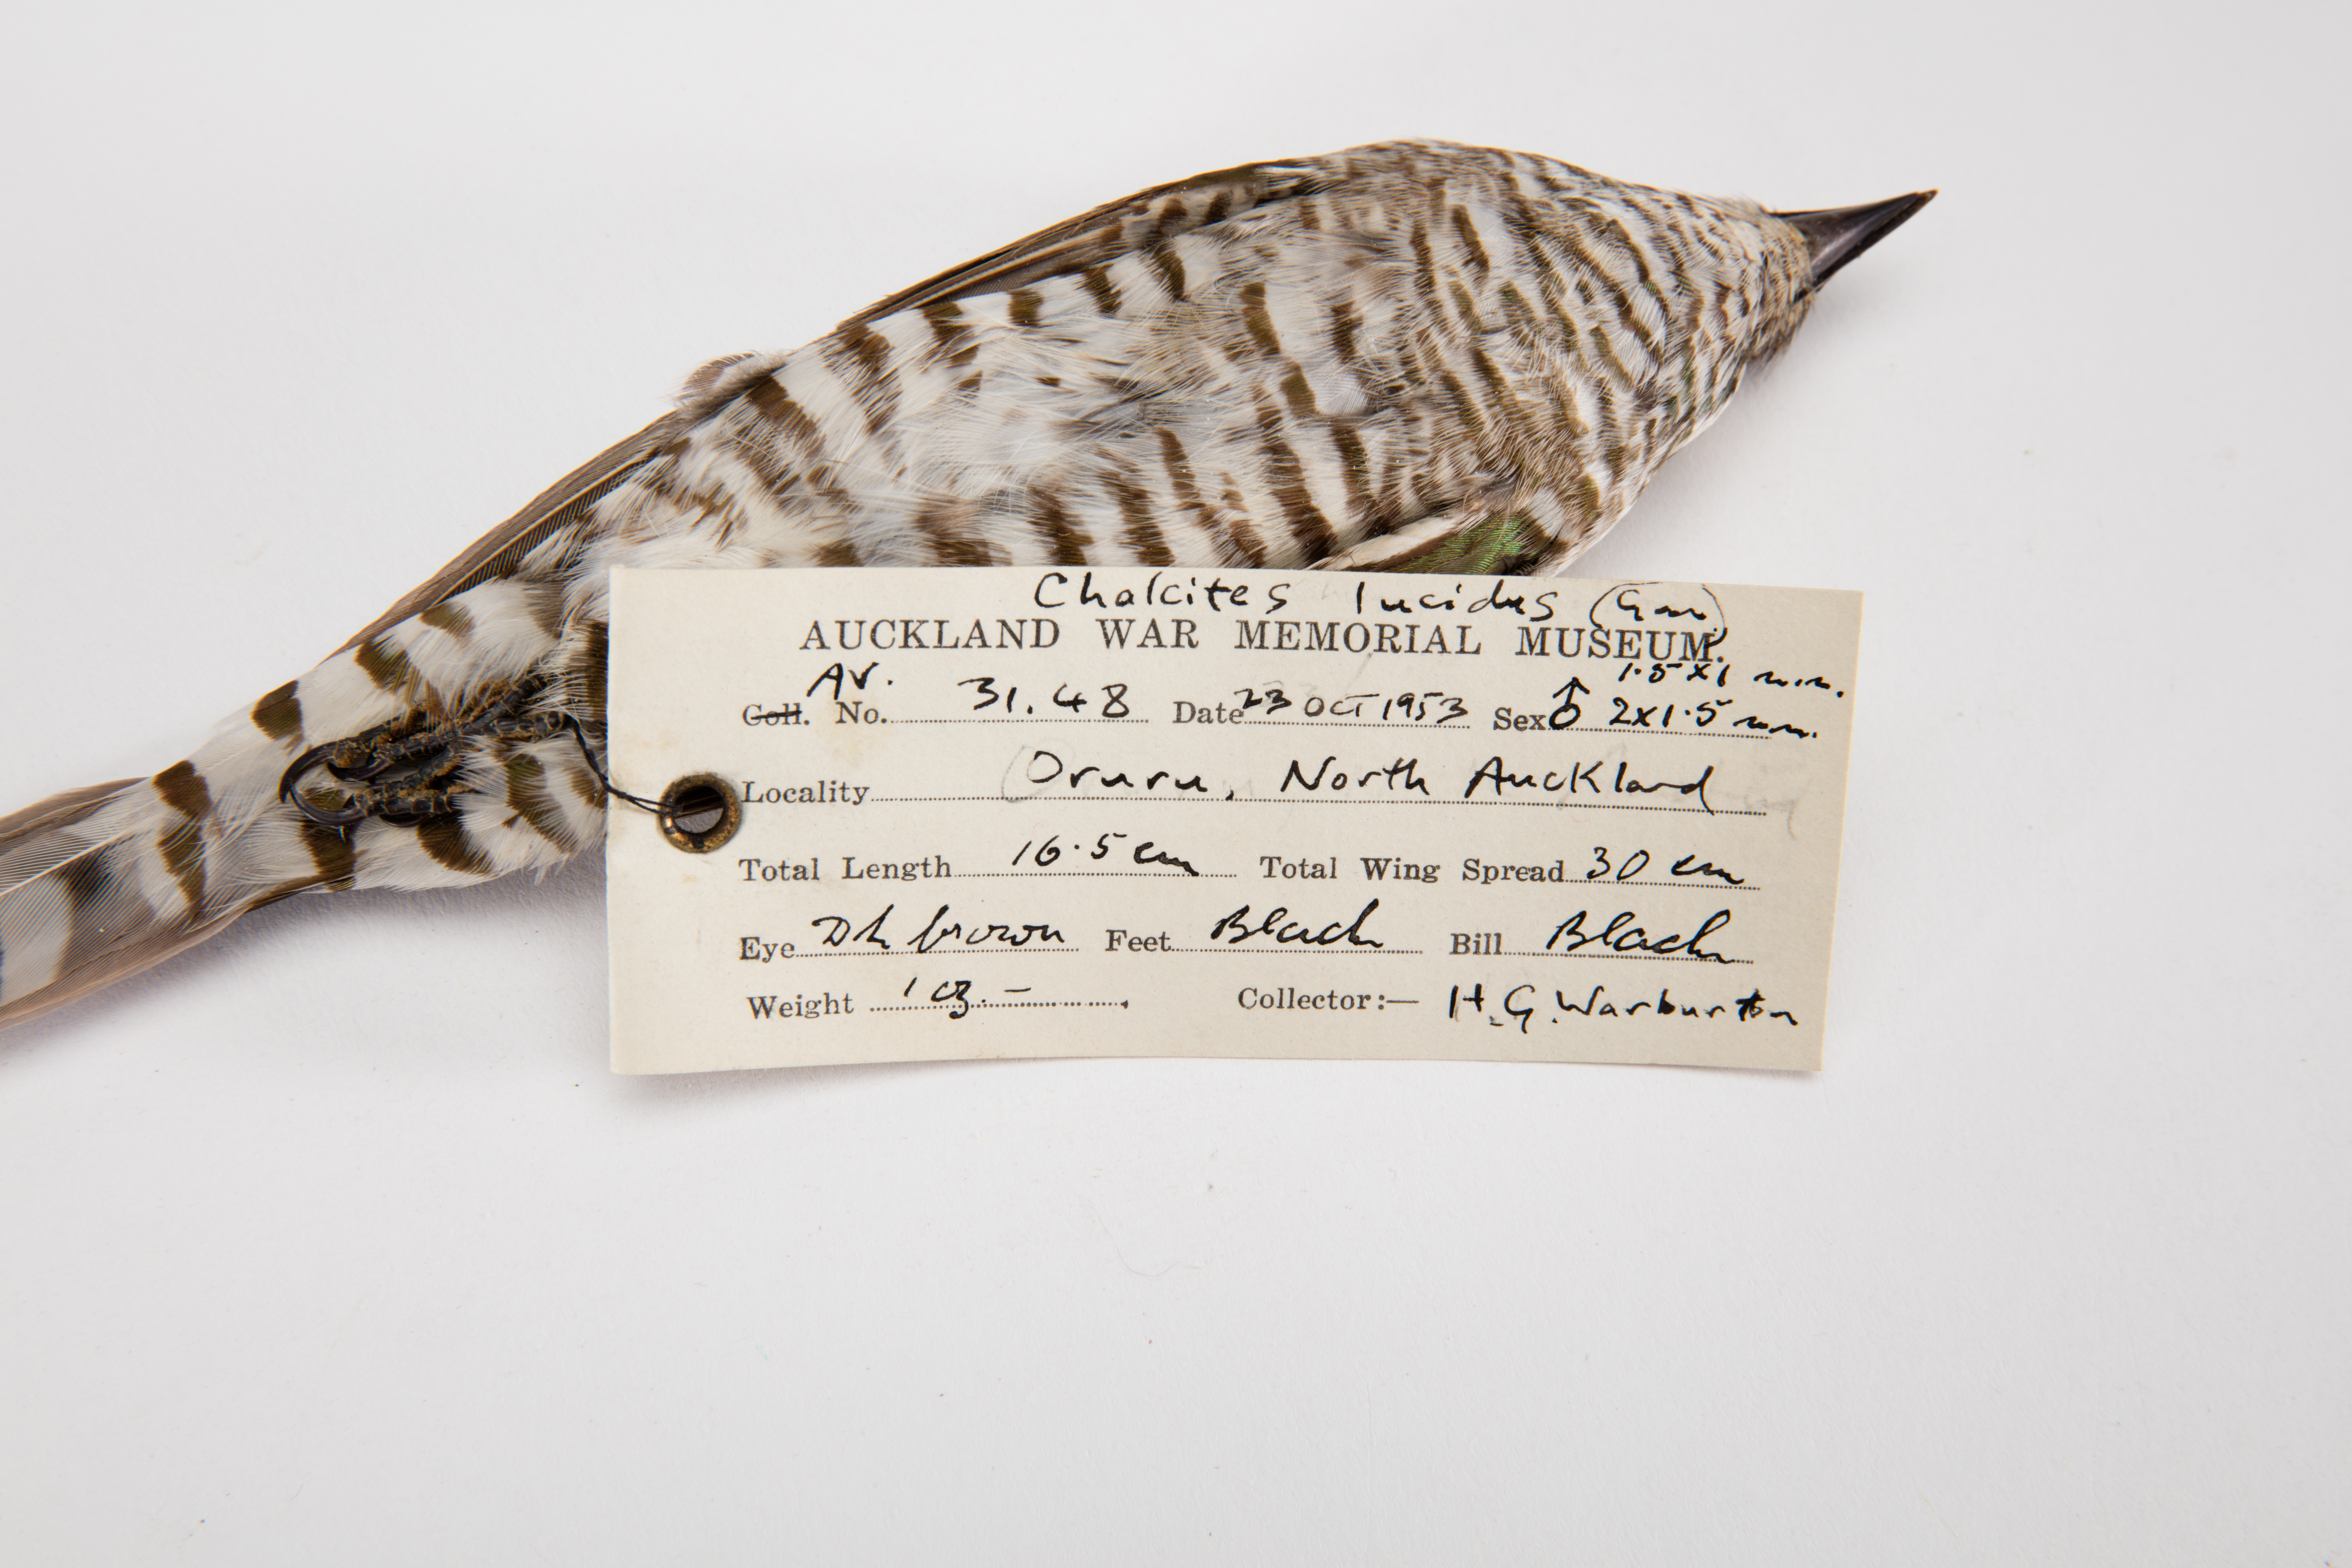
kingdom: Animalia
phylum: Chordata
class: Aves
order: Cuculiformes
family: Cuculidae
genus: Chrysococcyx
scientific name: Chrysococcyx lucidus
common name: Shining bronze cuckoo
